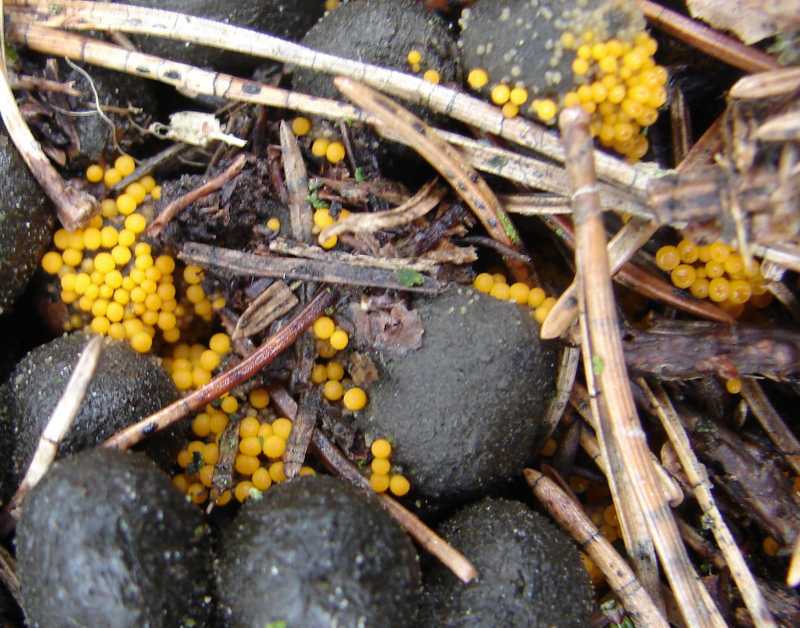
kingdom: Fungi
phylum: Ascomycota
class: Pezizomycetes
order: Pezizales
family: Pyronemataceae
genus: Byssonectria
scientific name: Byssonectria terrestris
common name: hjortebæger
